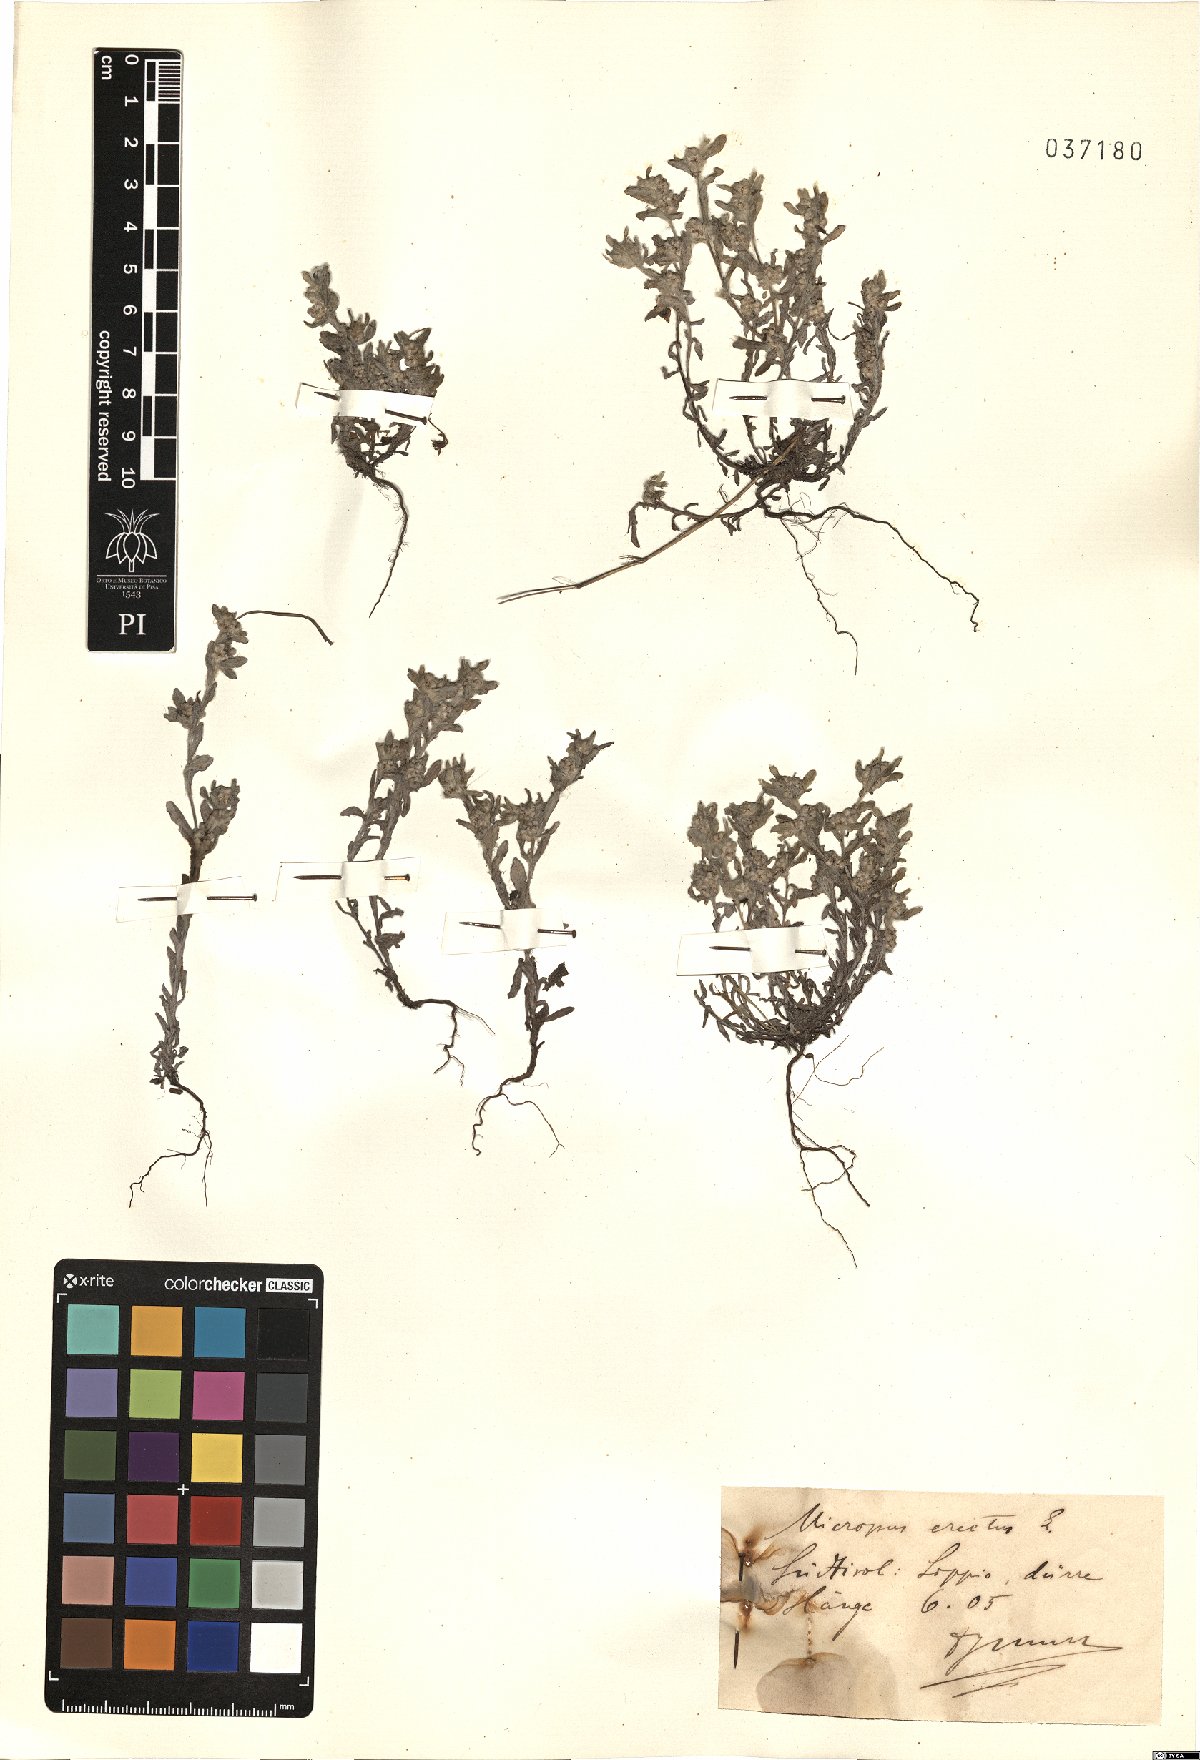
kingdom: Plantae
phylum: Tracheophyta
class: Magnoliopsida
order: Asterales
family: Asteraceae
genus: Bombycilaena
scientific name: Bombycilaena erecta
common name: Micropus
